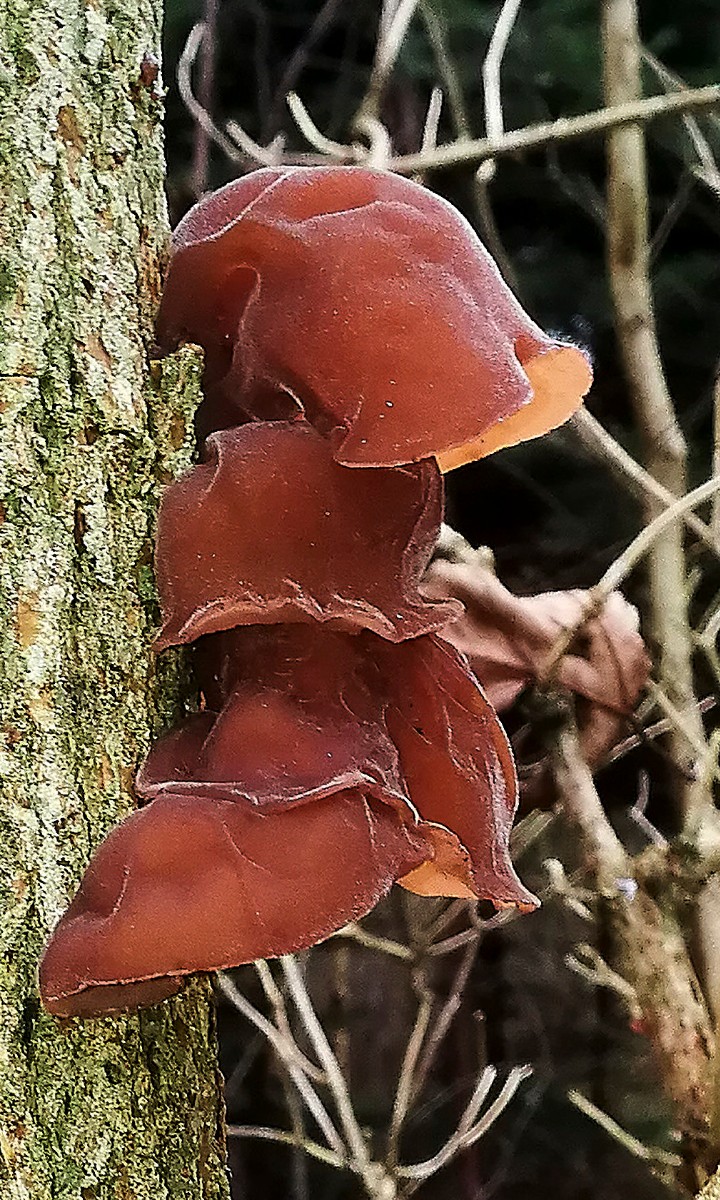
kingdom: Fungi
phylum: Basidiomycota
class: Agaricomycetes
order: Auriculariales
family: Auriculariaceae
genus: Auricularia
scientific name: Auricularia auricula-judae
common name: almindelig judasøre
